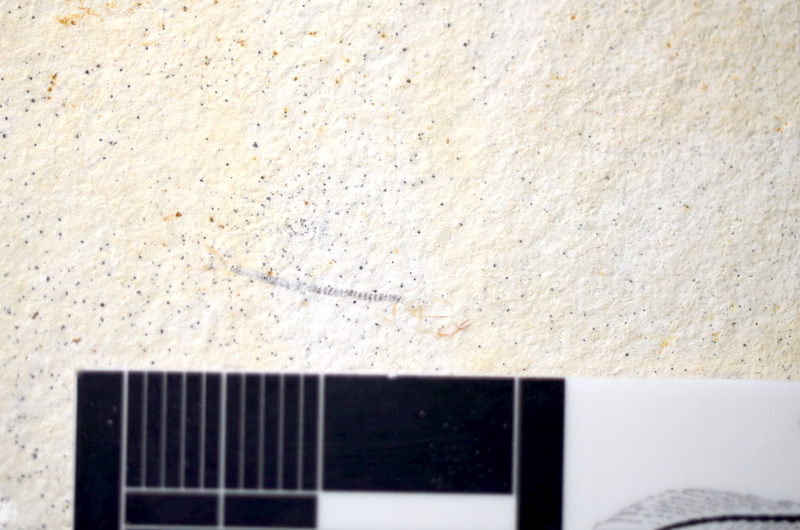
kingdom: Animalia
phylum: Chordata
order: Salmoniformes
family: Orthogonikleithridae
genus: Orthogonikleithrus
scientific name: Orthogonikleithrus hoelli
